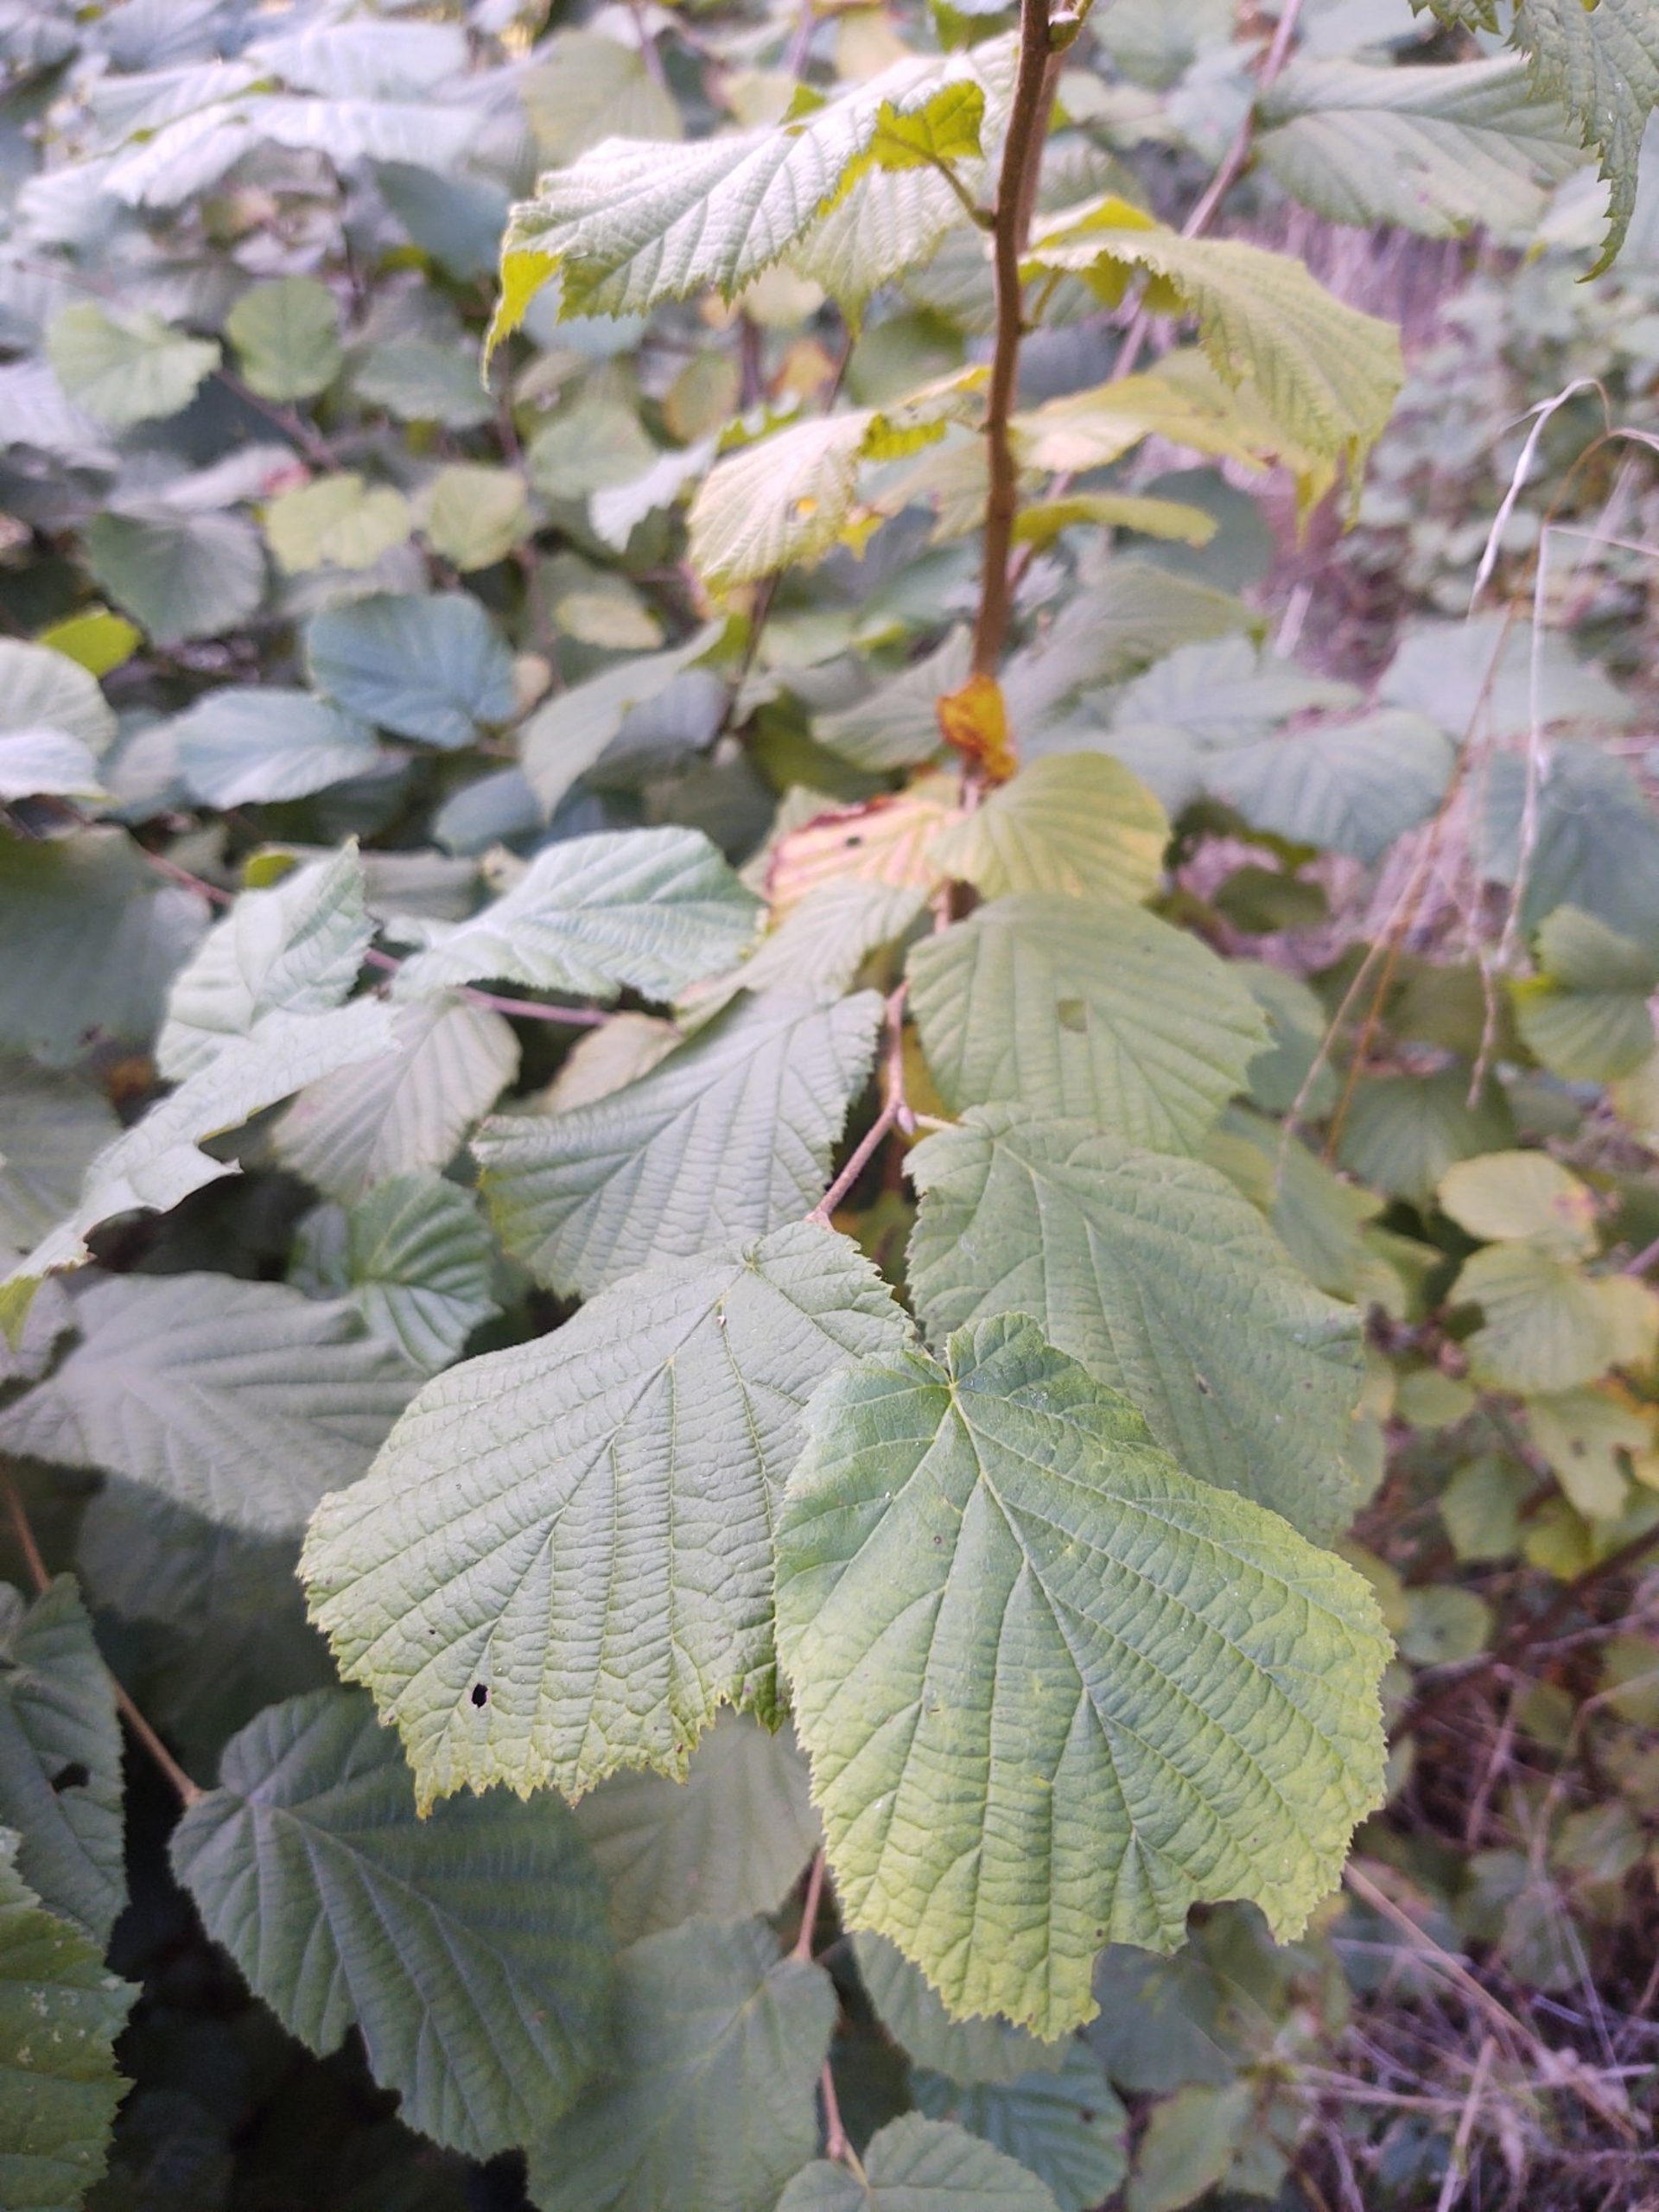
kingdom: Plantae
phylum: Tracheophyta
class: Magnoliopsida
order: Fagales
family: Betulaceae
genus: Corylus
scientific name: Corylus avellana
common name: Hassel
